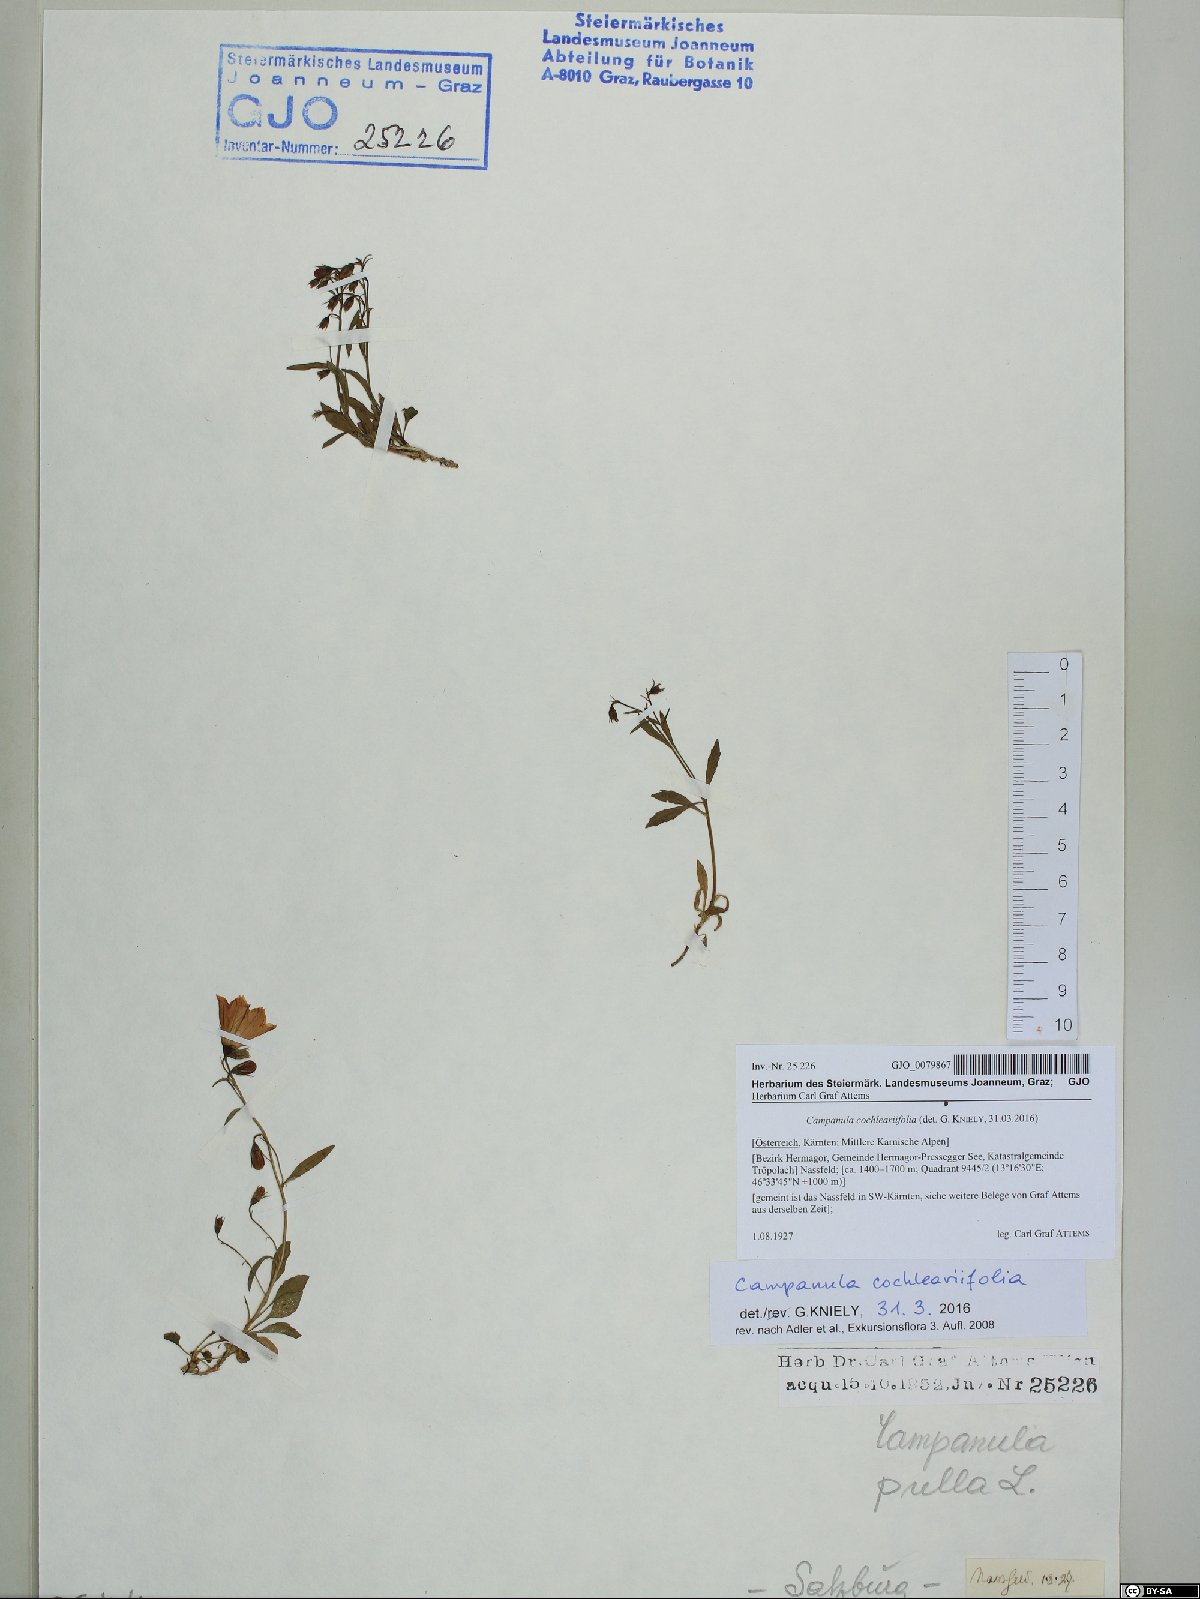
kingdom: Plantae
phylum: Tracheophyta
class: Magnoliopsida
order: Asterales
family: Campanulaceae
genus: Campanula
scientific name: Campanula cochleariifolia
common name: Fairies'-thimbles
